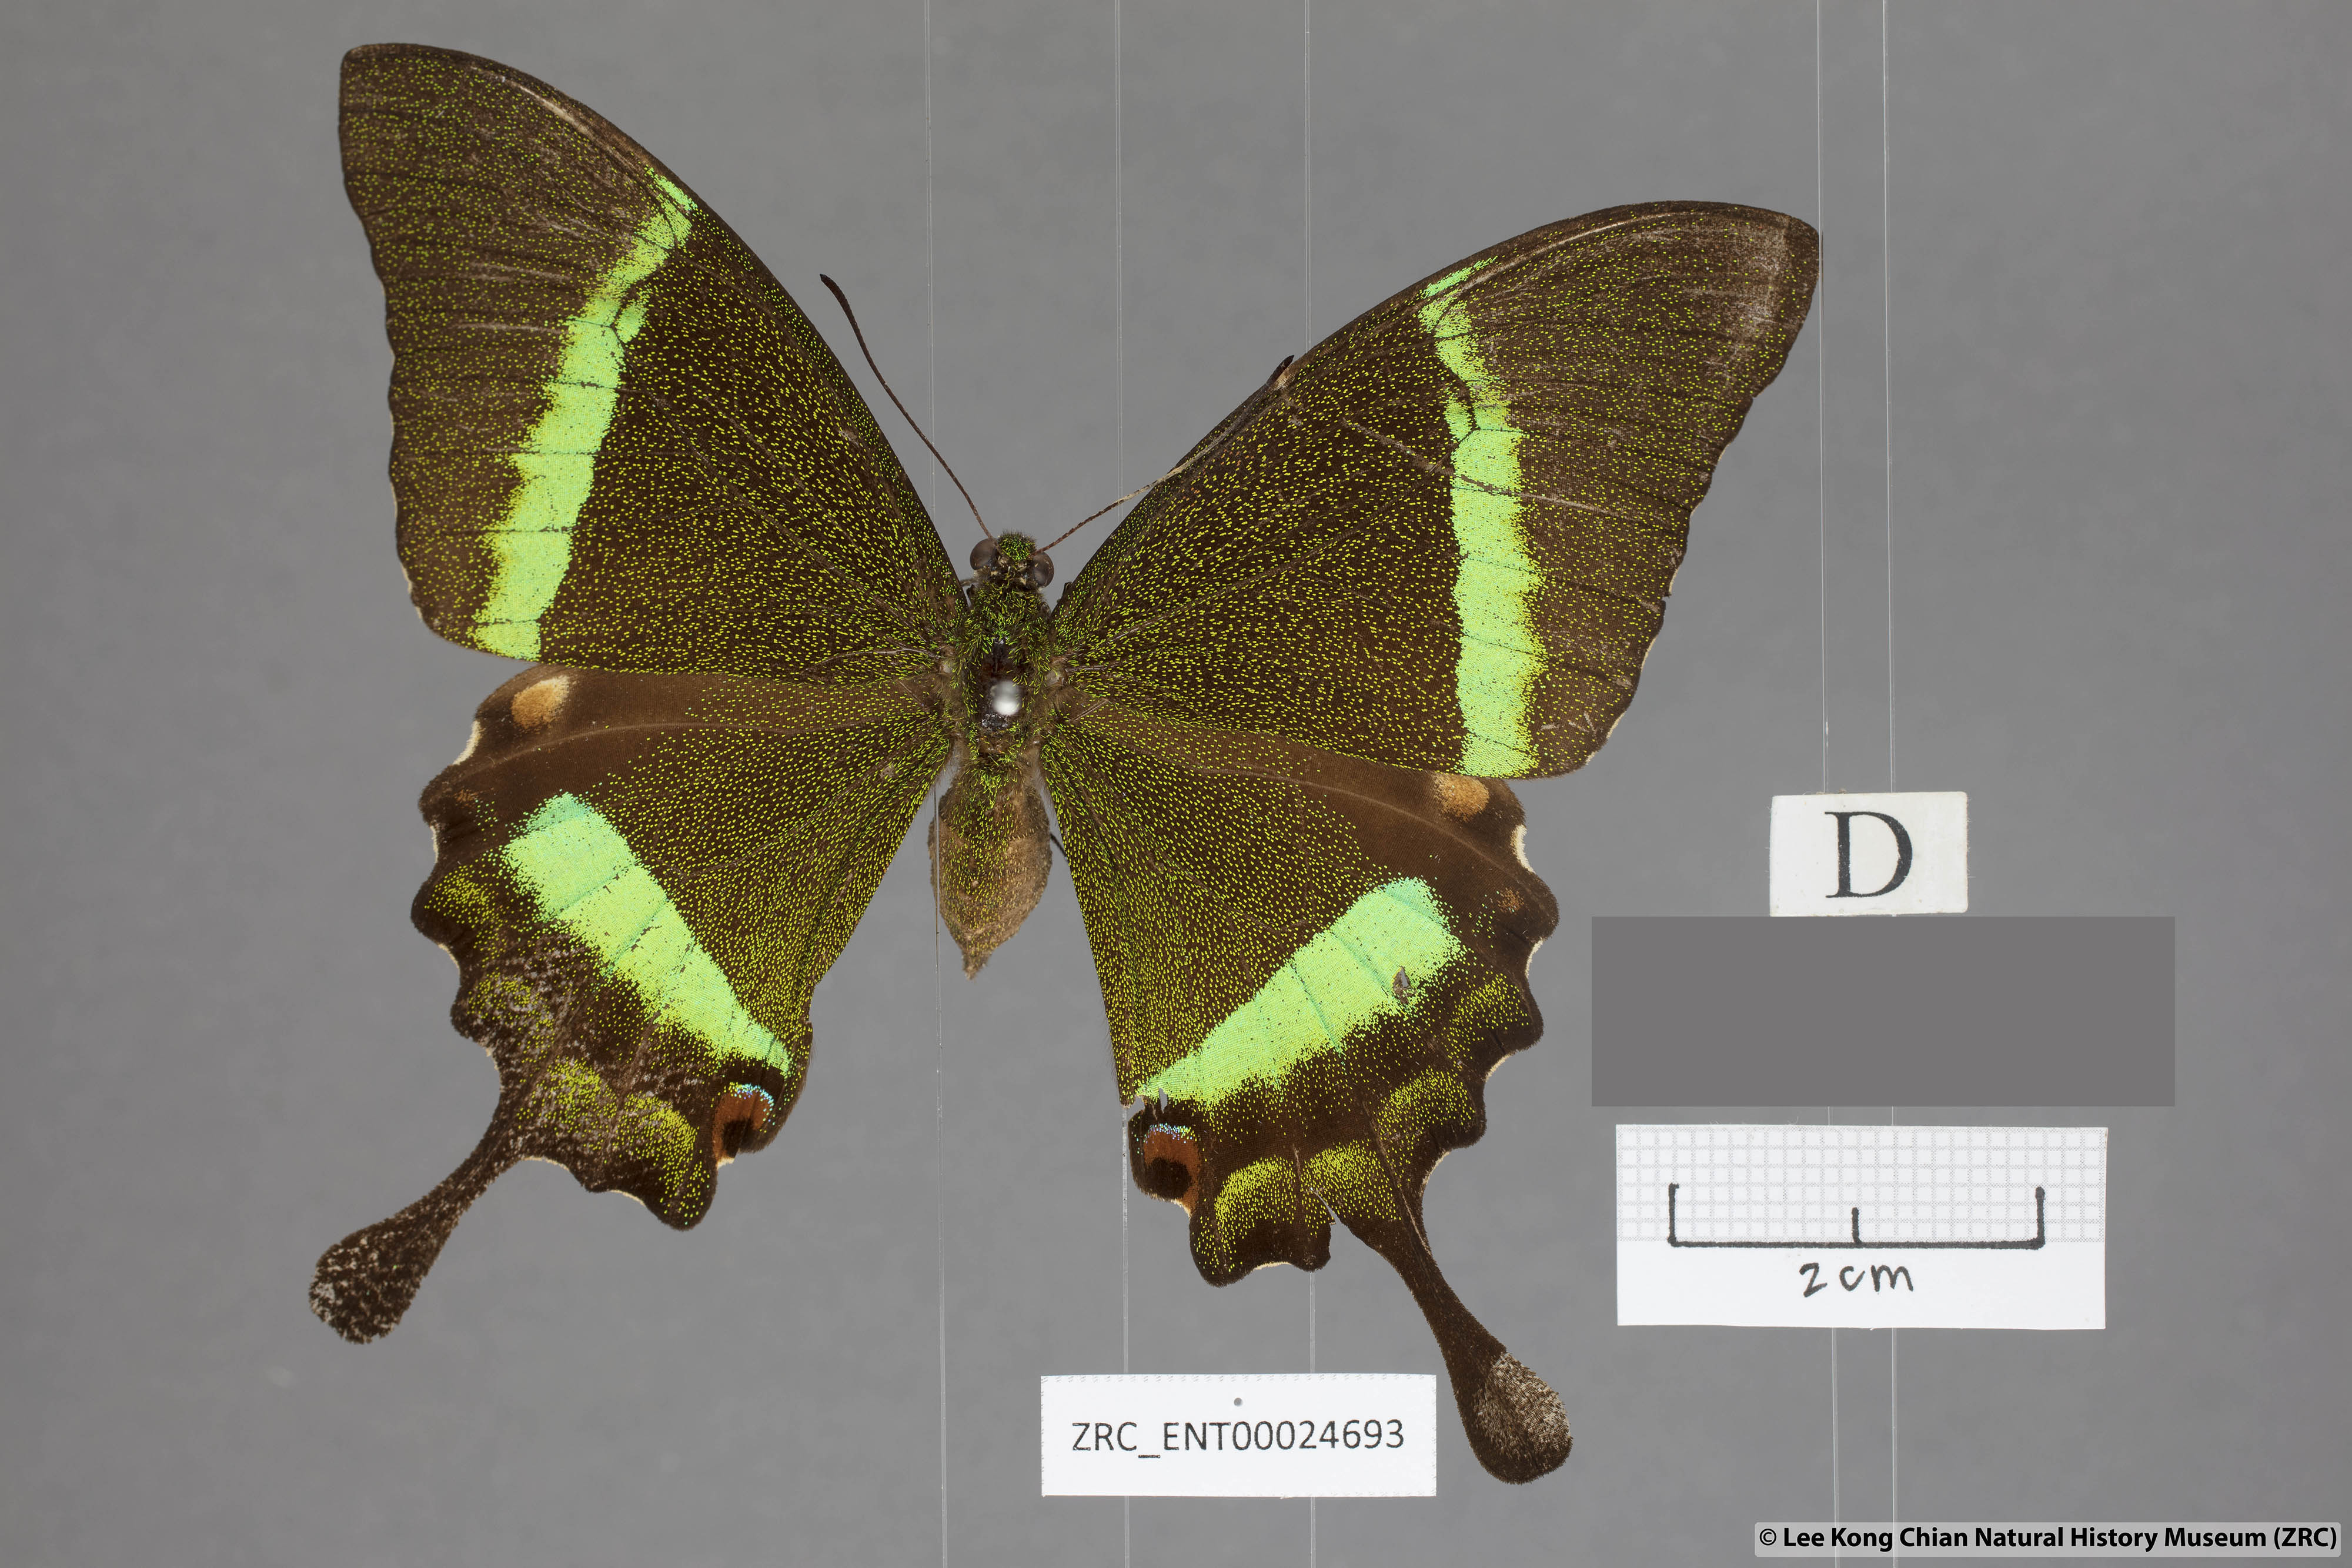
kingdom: Animalia
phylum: Arthropoda
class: Insecta
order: Lepidoptera
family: Papilionidae
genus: Papilio
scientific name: Papilio palinurus
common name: Banded peacock
